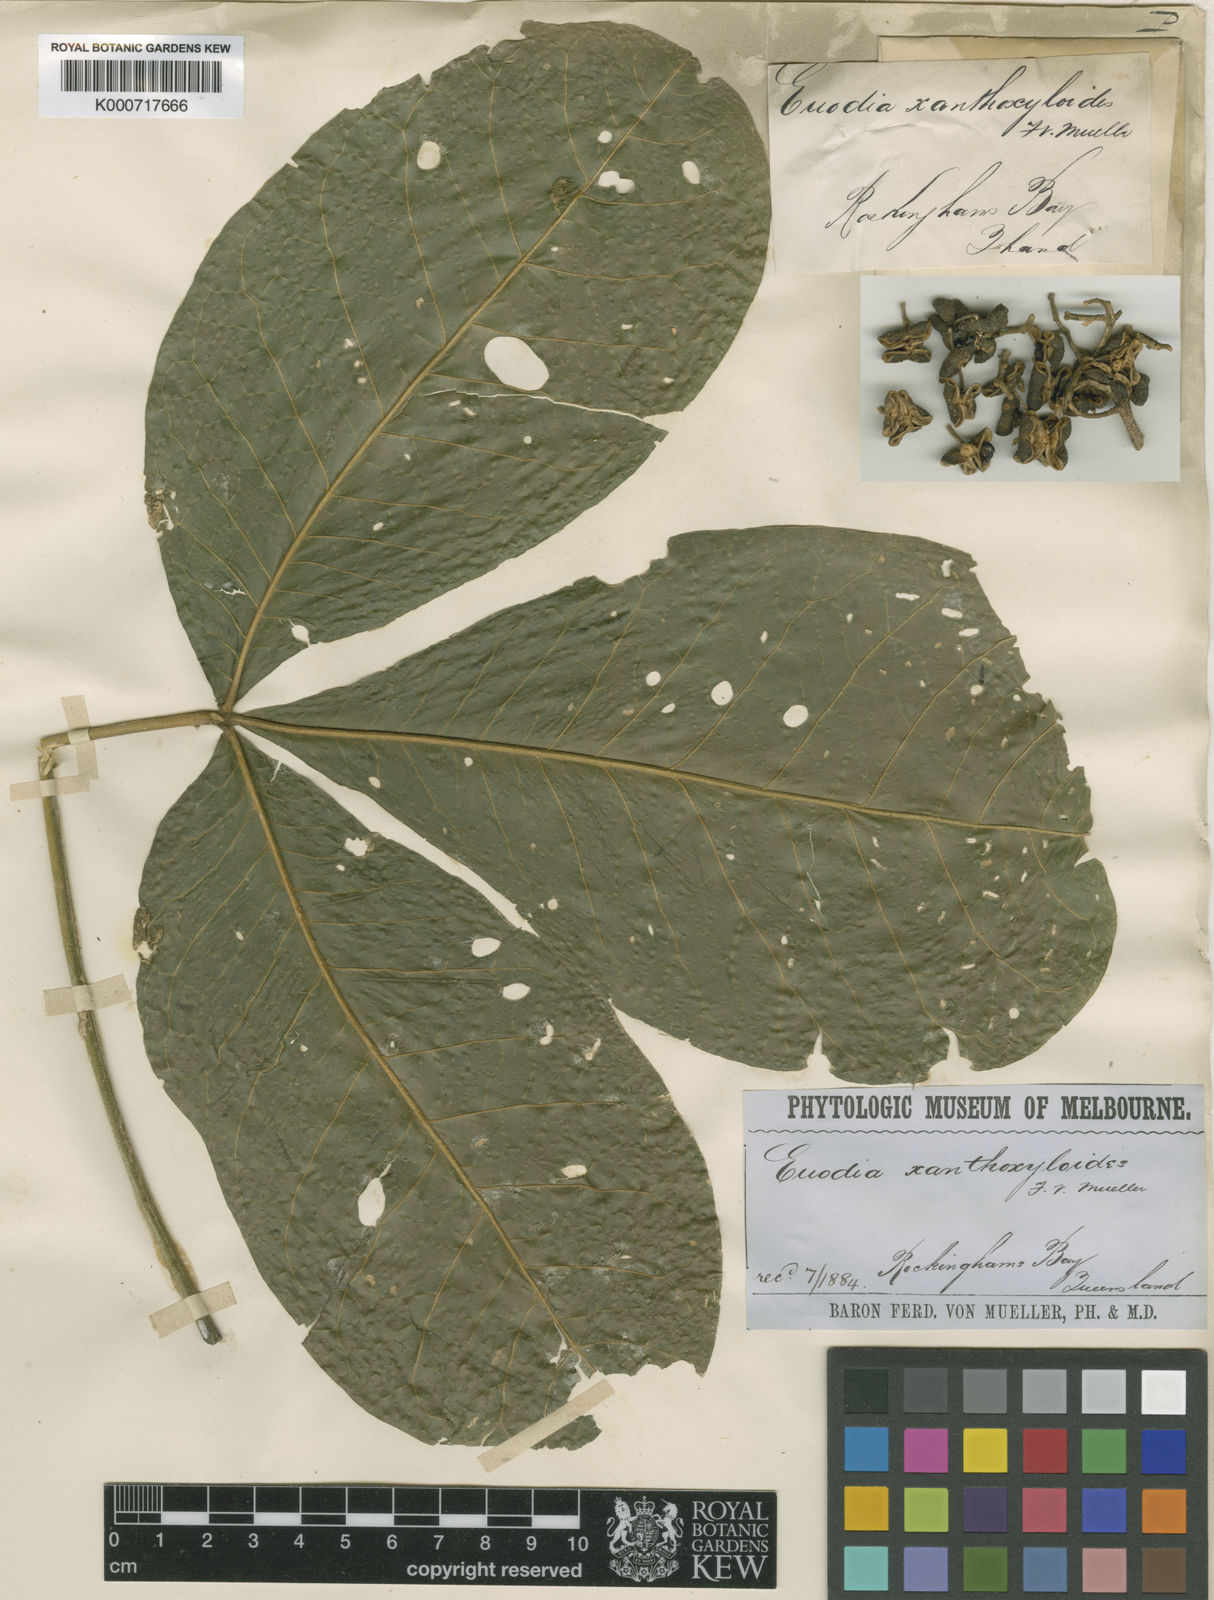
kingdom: Plantae
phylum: Tracheophyta
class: Magnoliopsida
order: Sapindales
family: Rutaceae
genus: Melicope
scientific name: Melicope xanthoxyloides
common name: Yellow evodia
